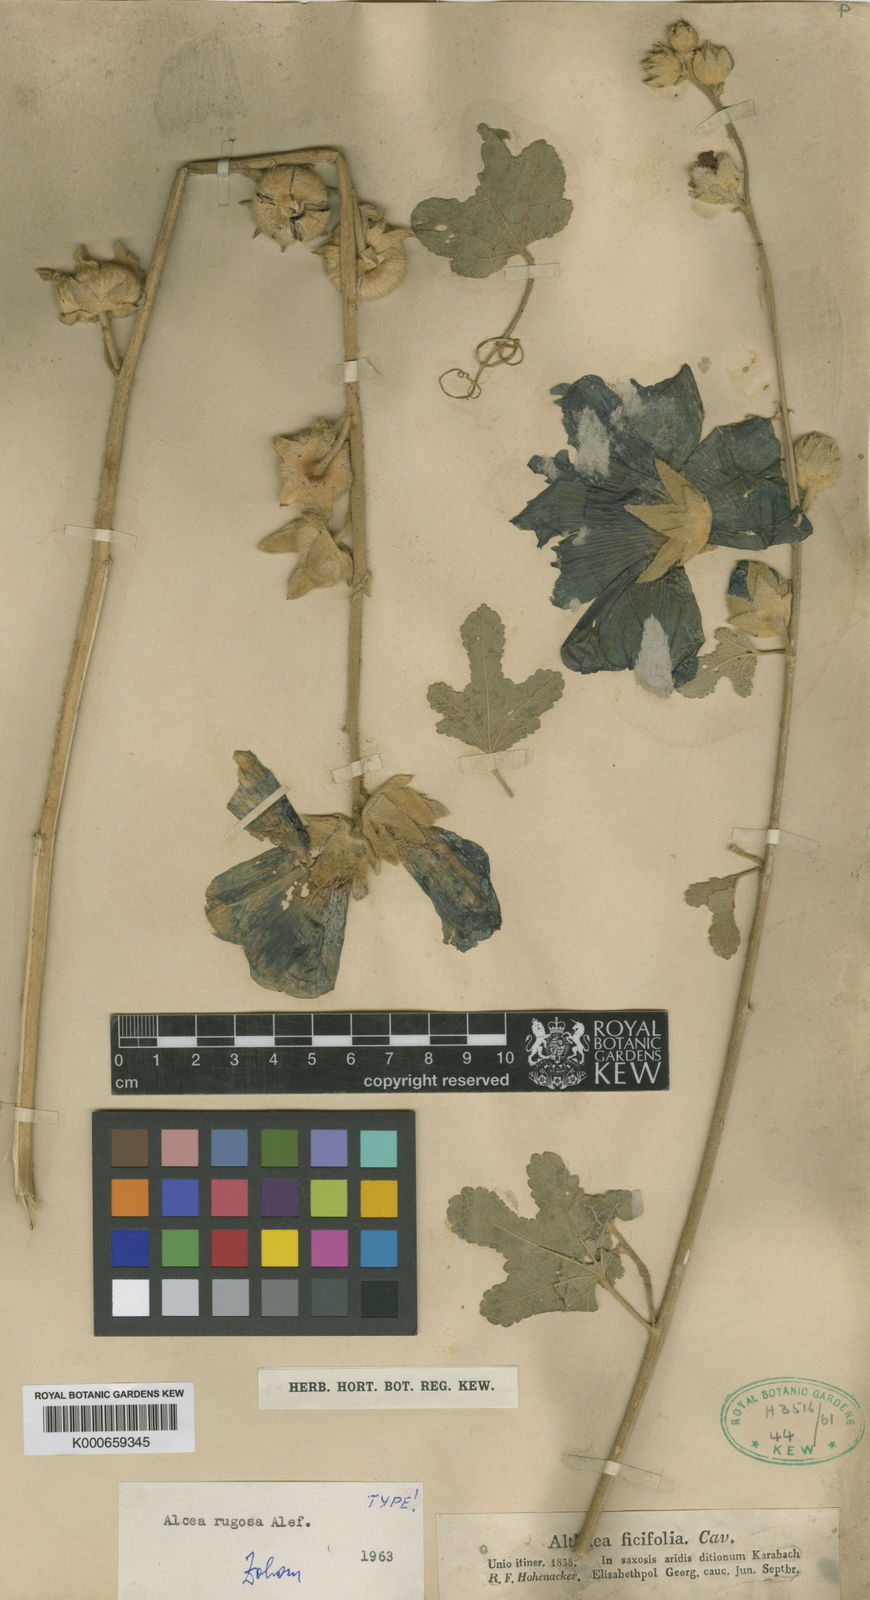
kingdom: Plantae
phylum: Tracheophyta
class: Magnoliopsida
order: Malvales
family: Malvaceae
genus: Althaea
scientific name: Althaea
